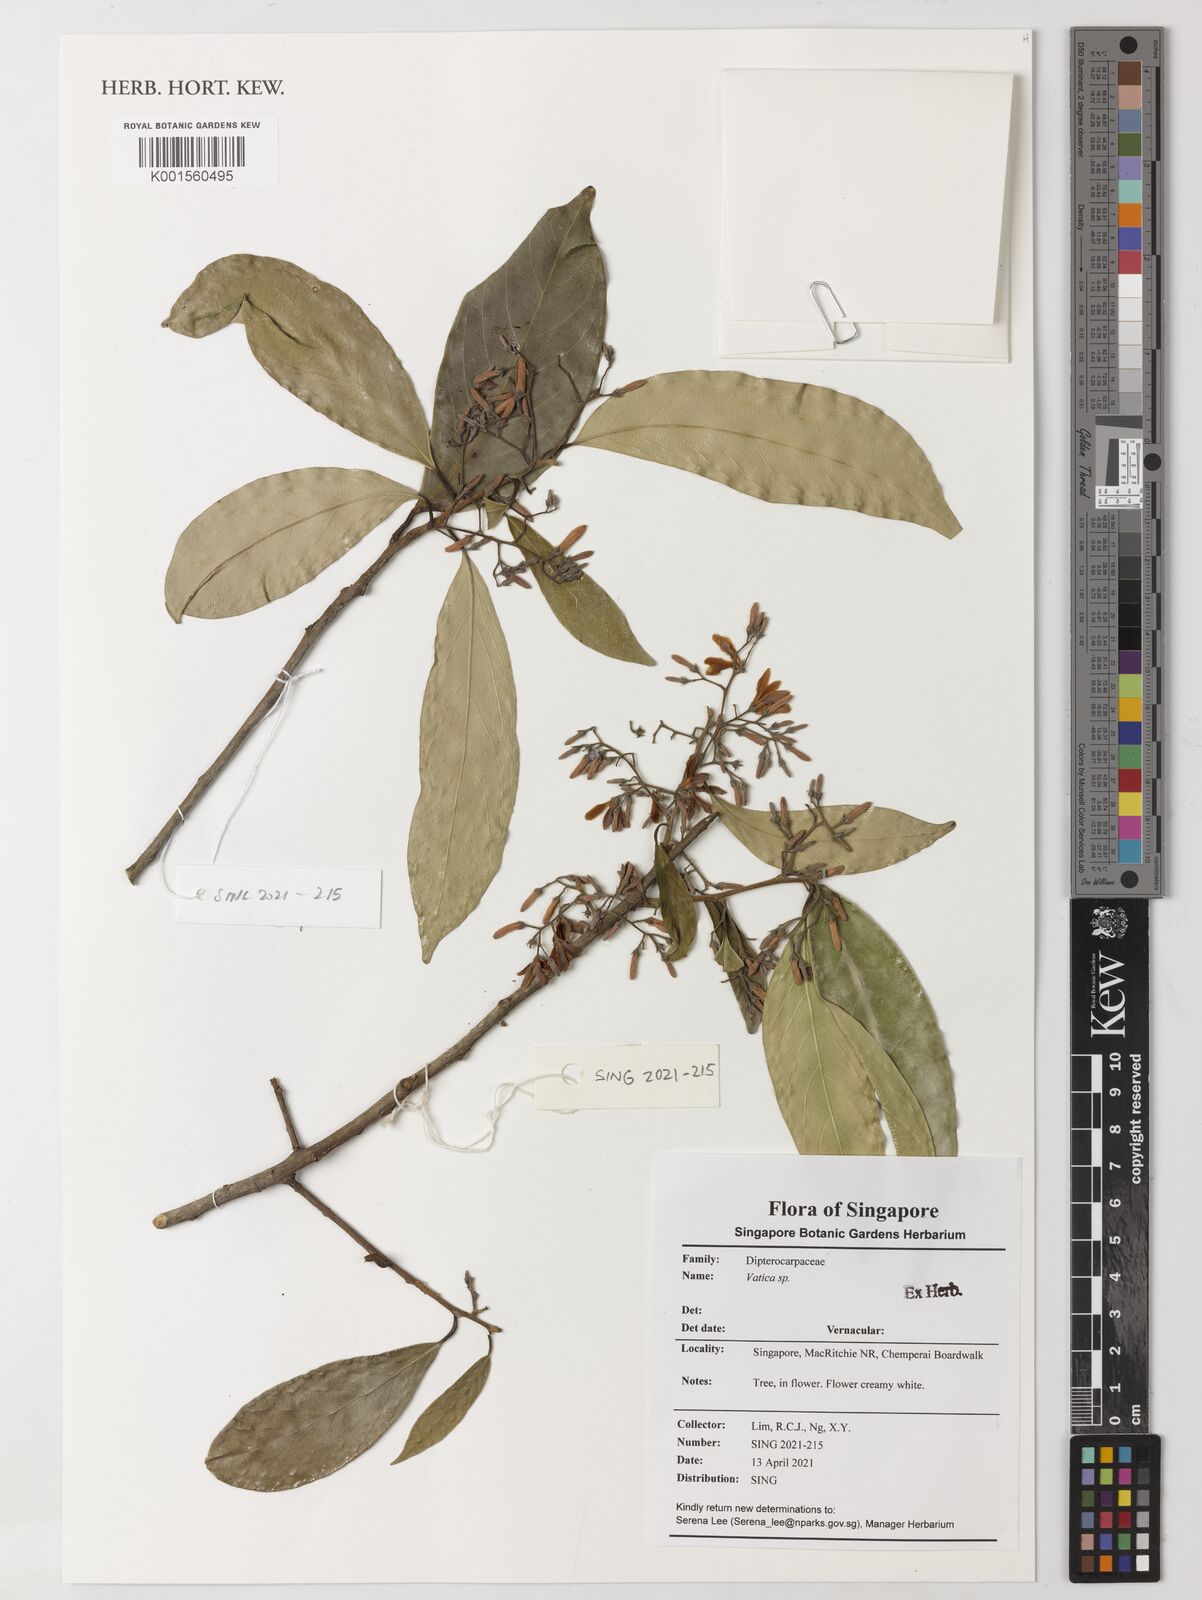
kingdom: Plantae
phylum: Tracheophyta
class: Magnoliopsida
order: Malvales
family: Dipterocarpaceae
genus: Vatica
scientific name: Vatica
